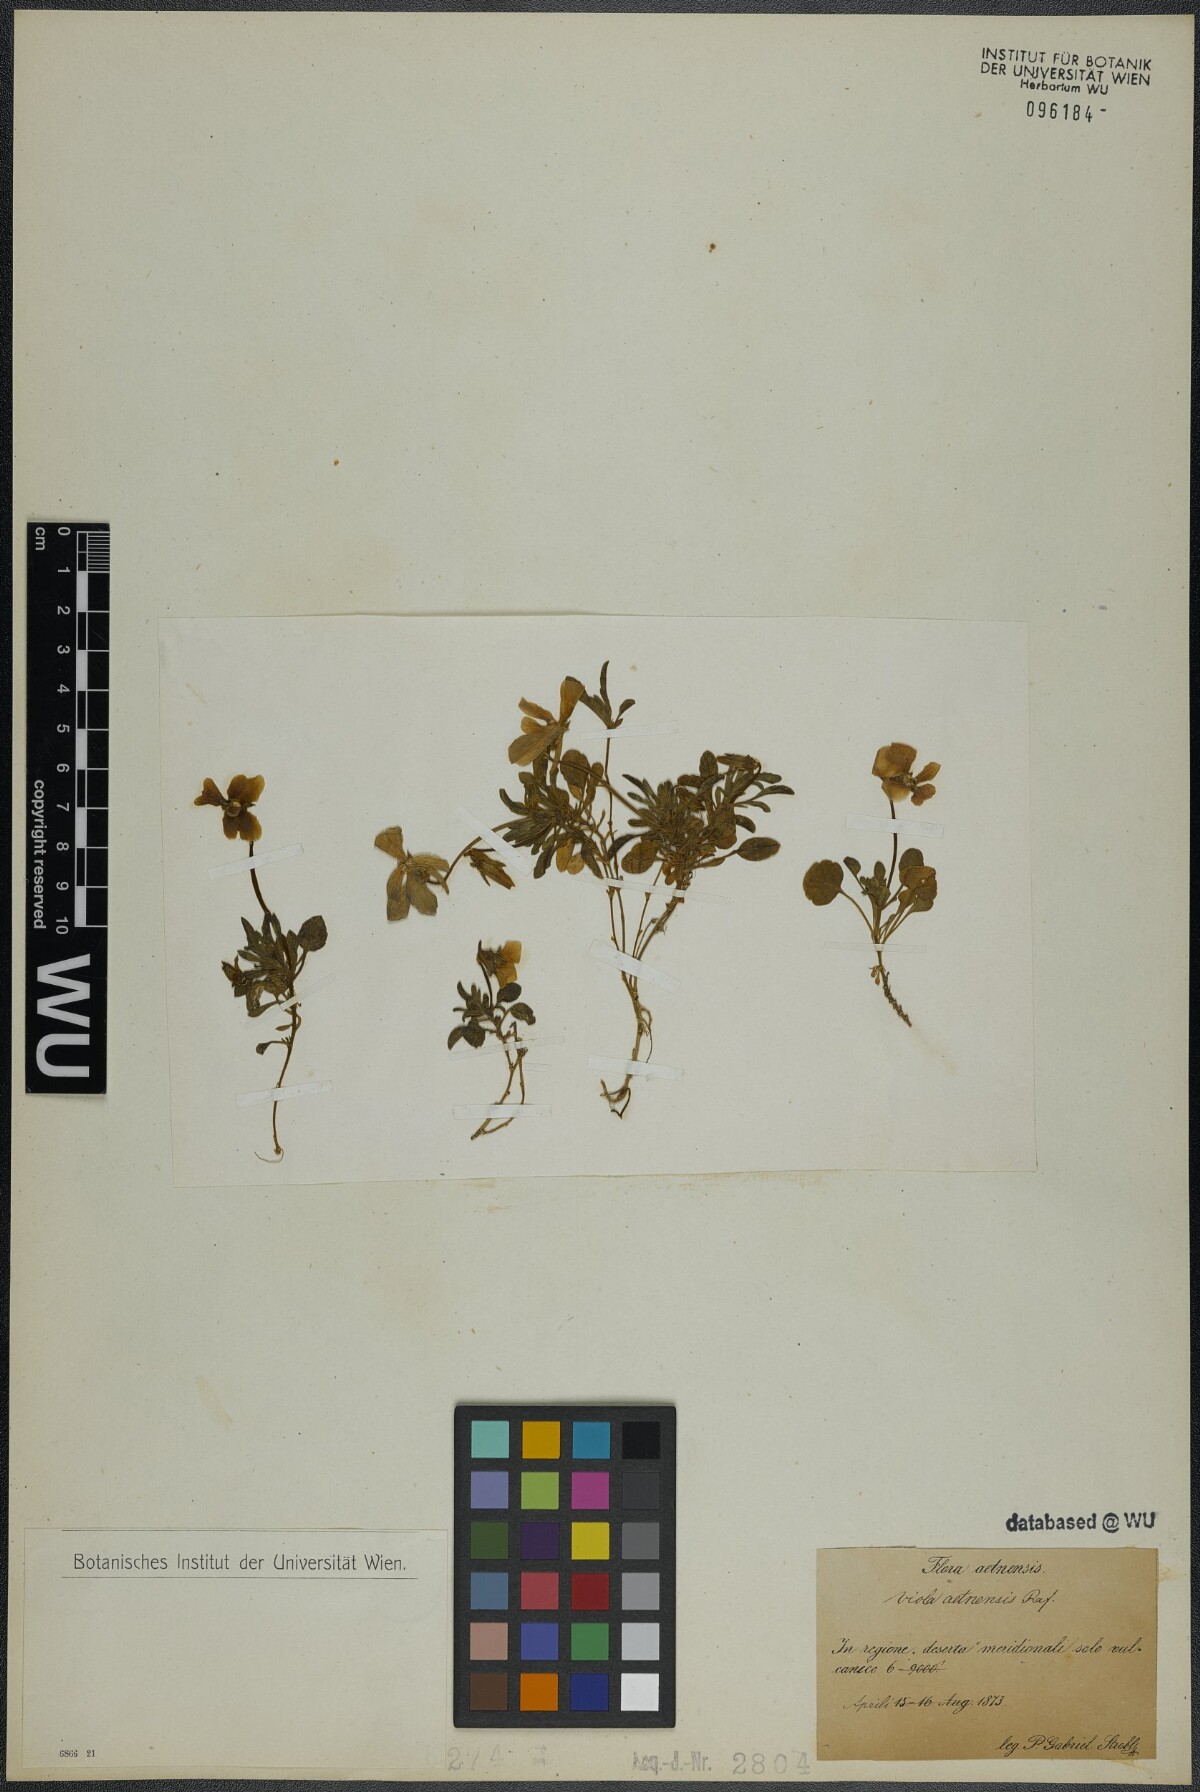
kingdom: Plantae
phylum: Tracheophyta
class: Magnoliopsida
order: Malpighiales
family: Violaceae
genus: Viola
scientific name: Viola aethnensis
